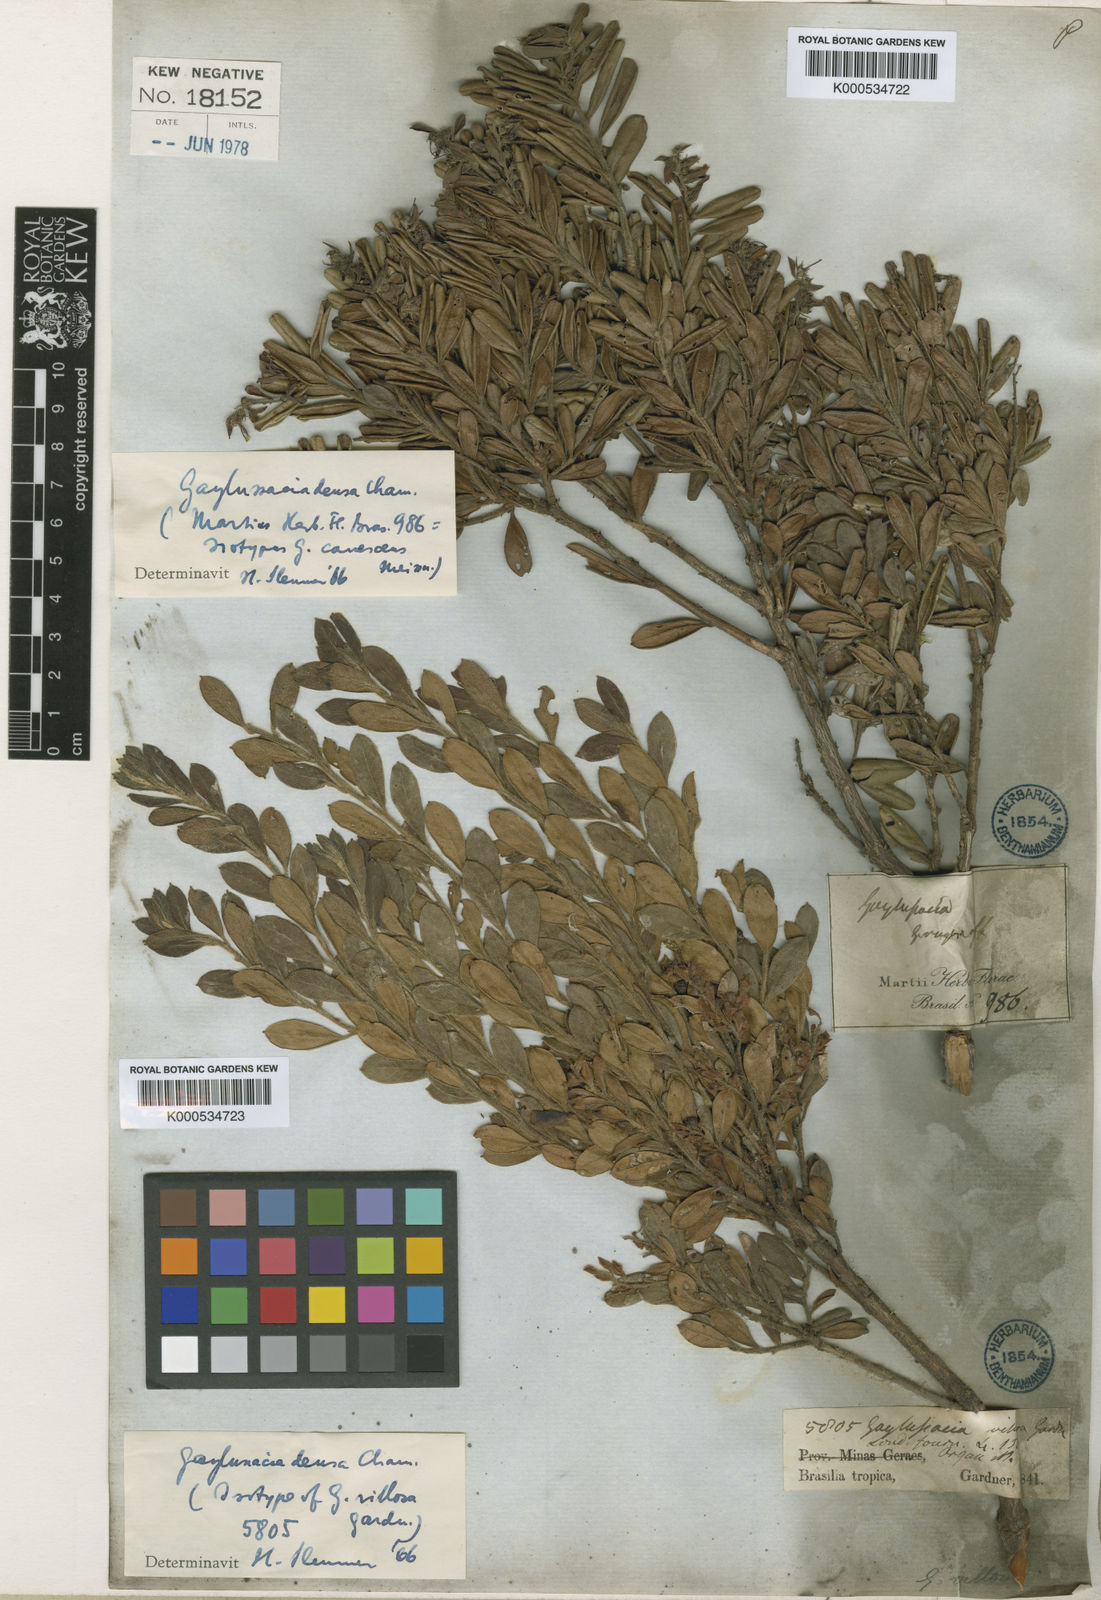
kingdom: Plantae
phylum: Tracheophyta
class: Magnoliopsida
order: Ericales
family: Ericaceae
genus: Gaylussacia
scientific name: Gaylussacia densa
